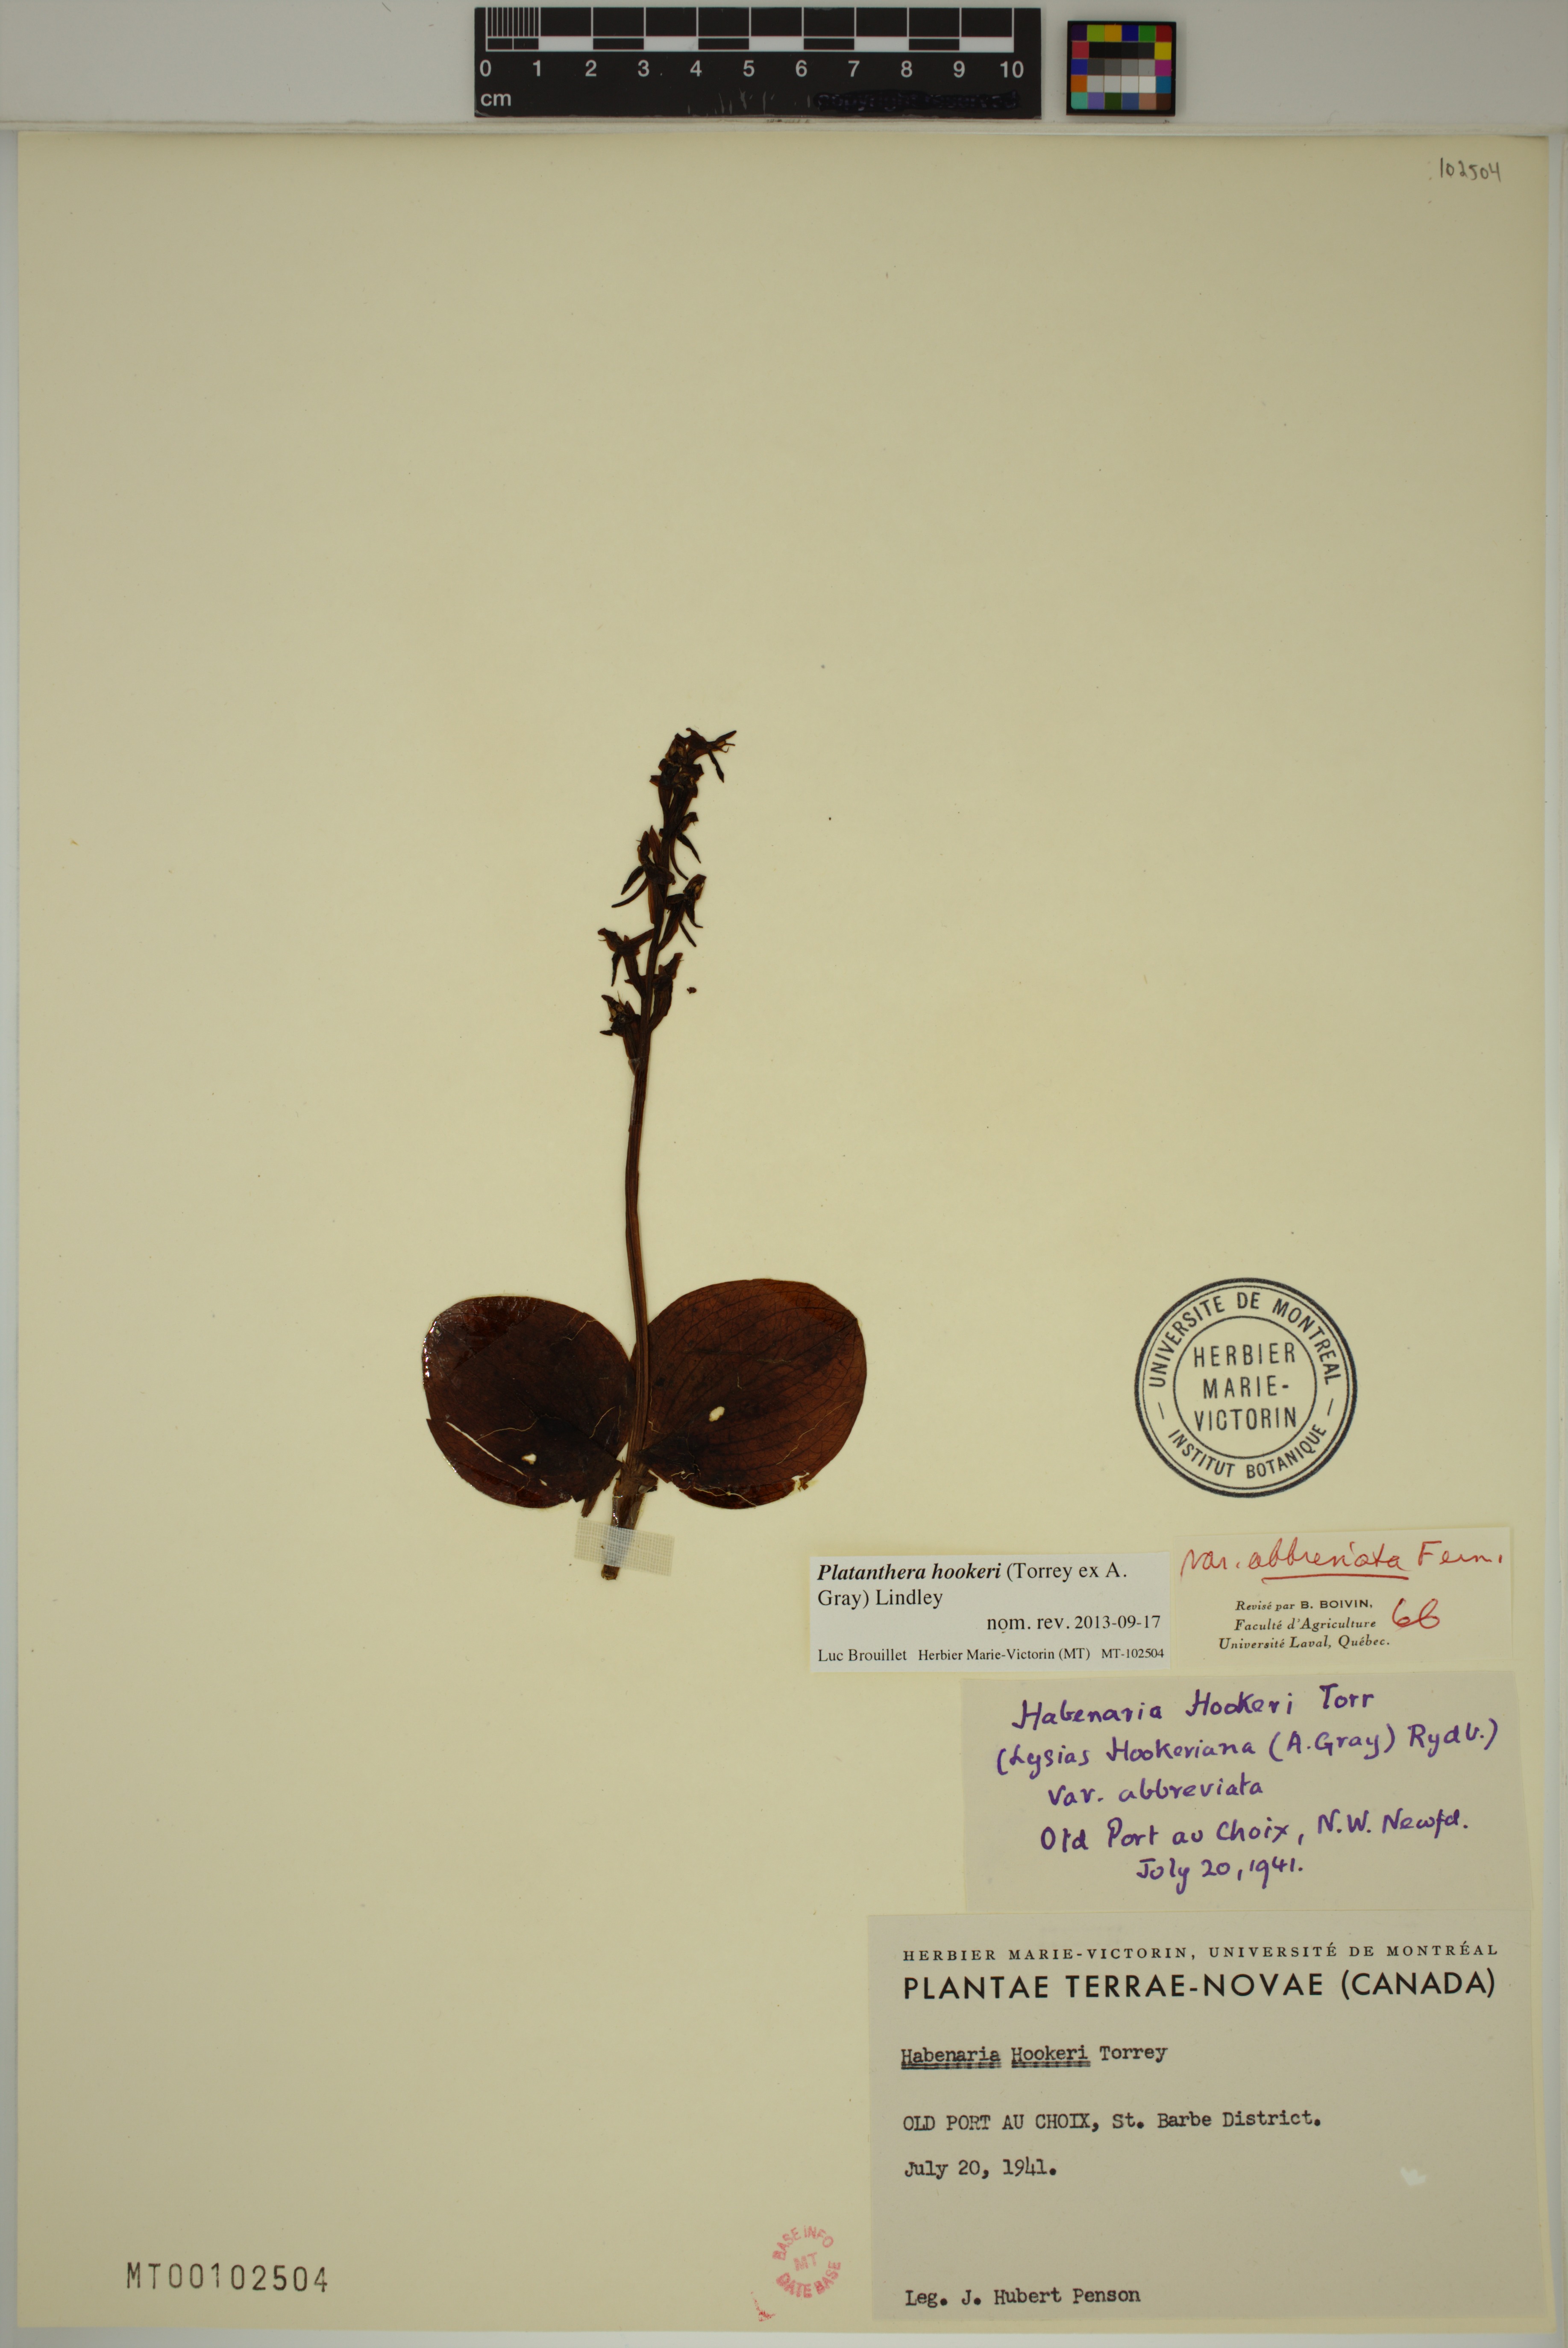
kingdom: Plantae
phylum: Tracheophyta
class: Liliopsida
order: Asparagales
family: Orchidaceae
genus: Platanthera
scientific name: Platanthera hookeri
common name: Hooker's orchid
